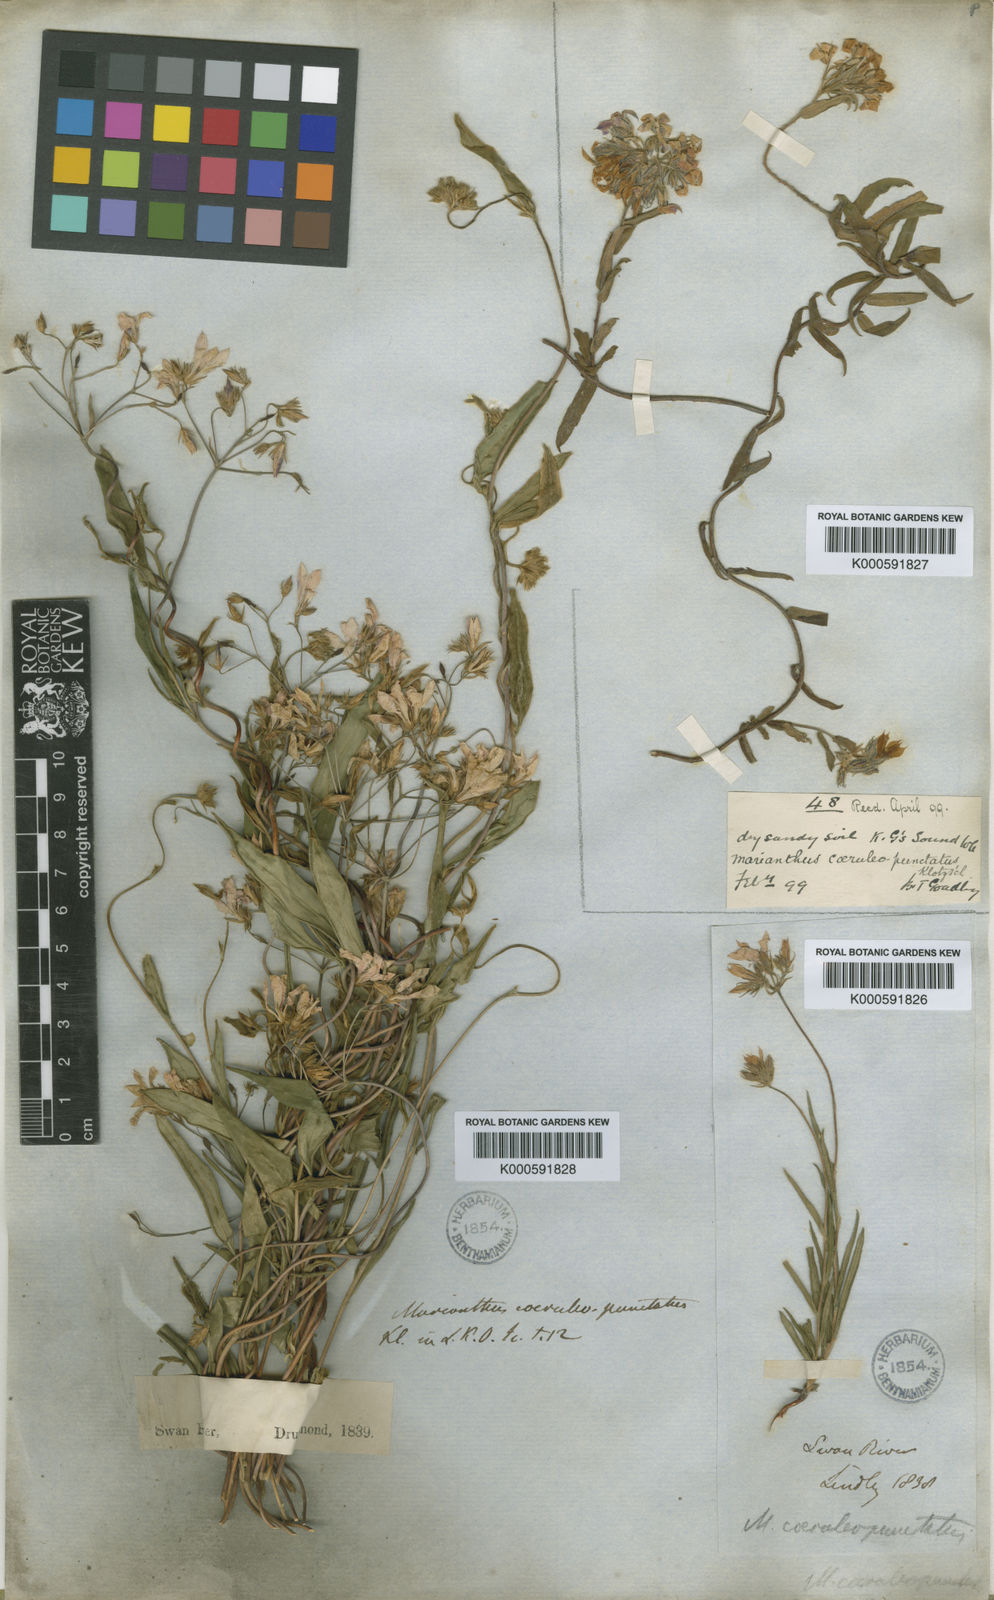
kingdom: Plantae
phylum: Tracheophyta
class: Magnoliopsida
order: Apiales
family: Pittosporaceae
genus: Marianthus
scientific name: Marianthus
